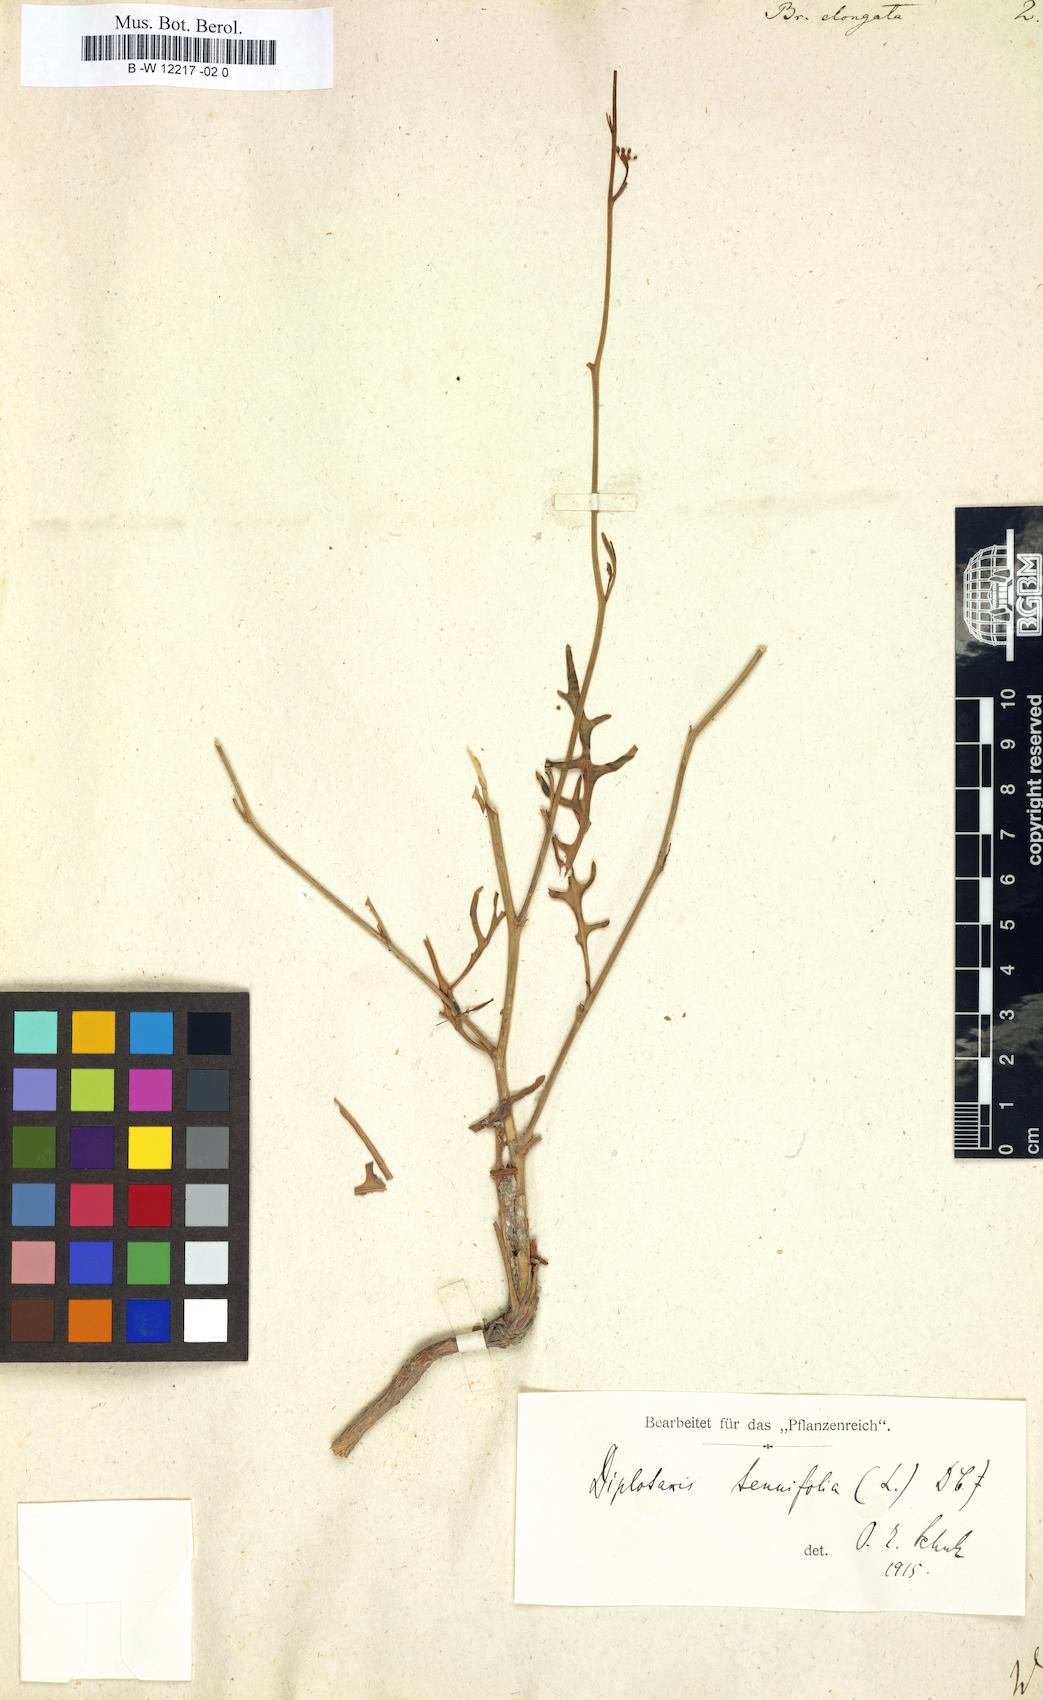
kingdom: Plantae
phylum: Tracheophyta
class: Magnoliopsida
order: Brassicales
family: Brassicaceae
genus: Brassica
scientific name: Brassica elongata
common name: Long-stalked rape
